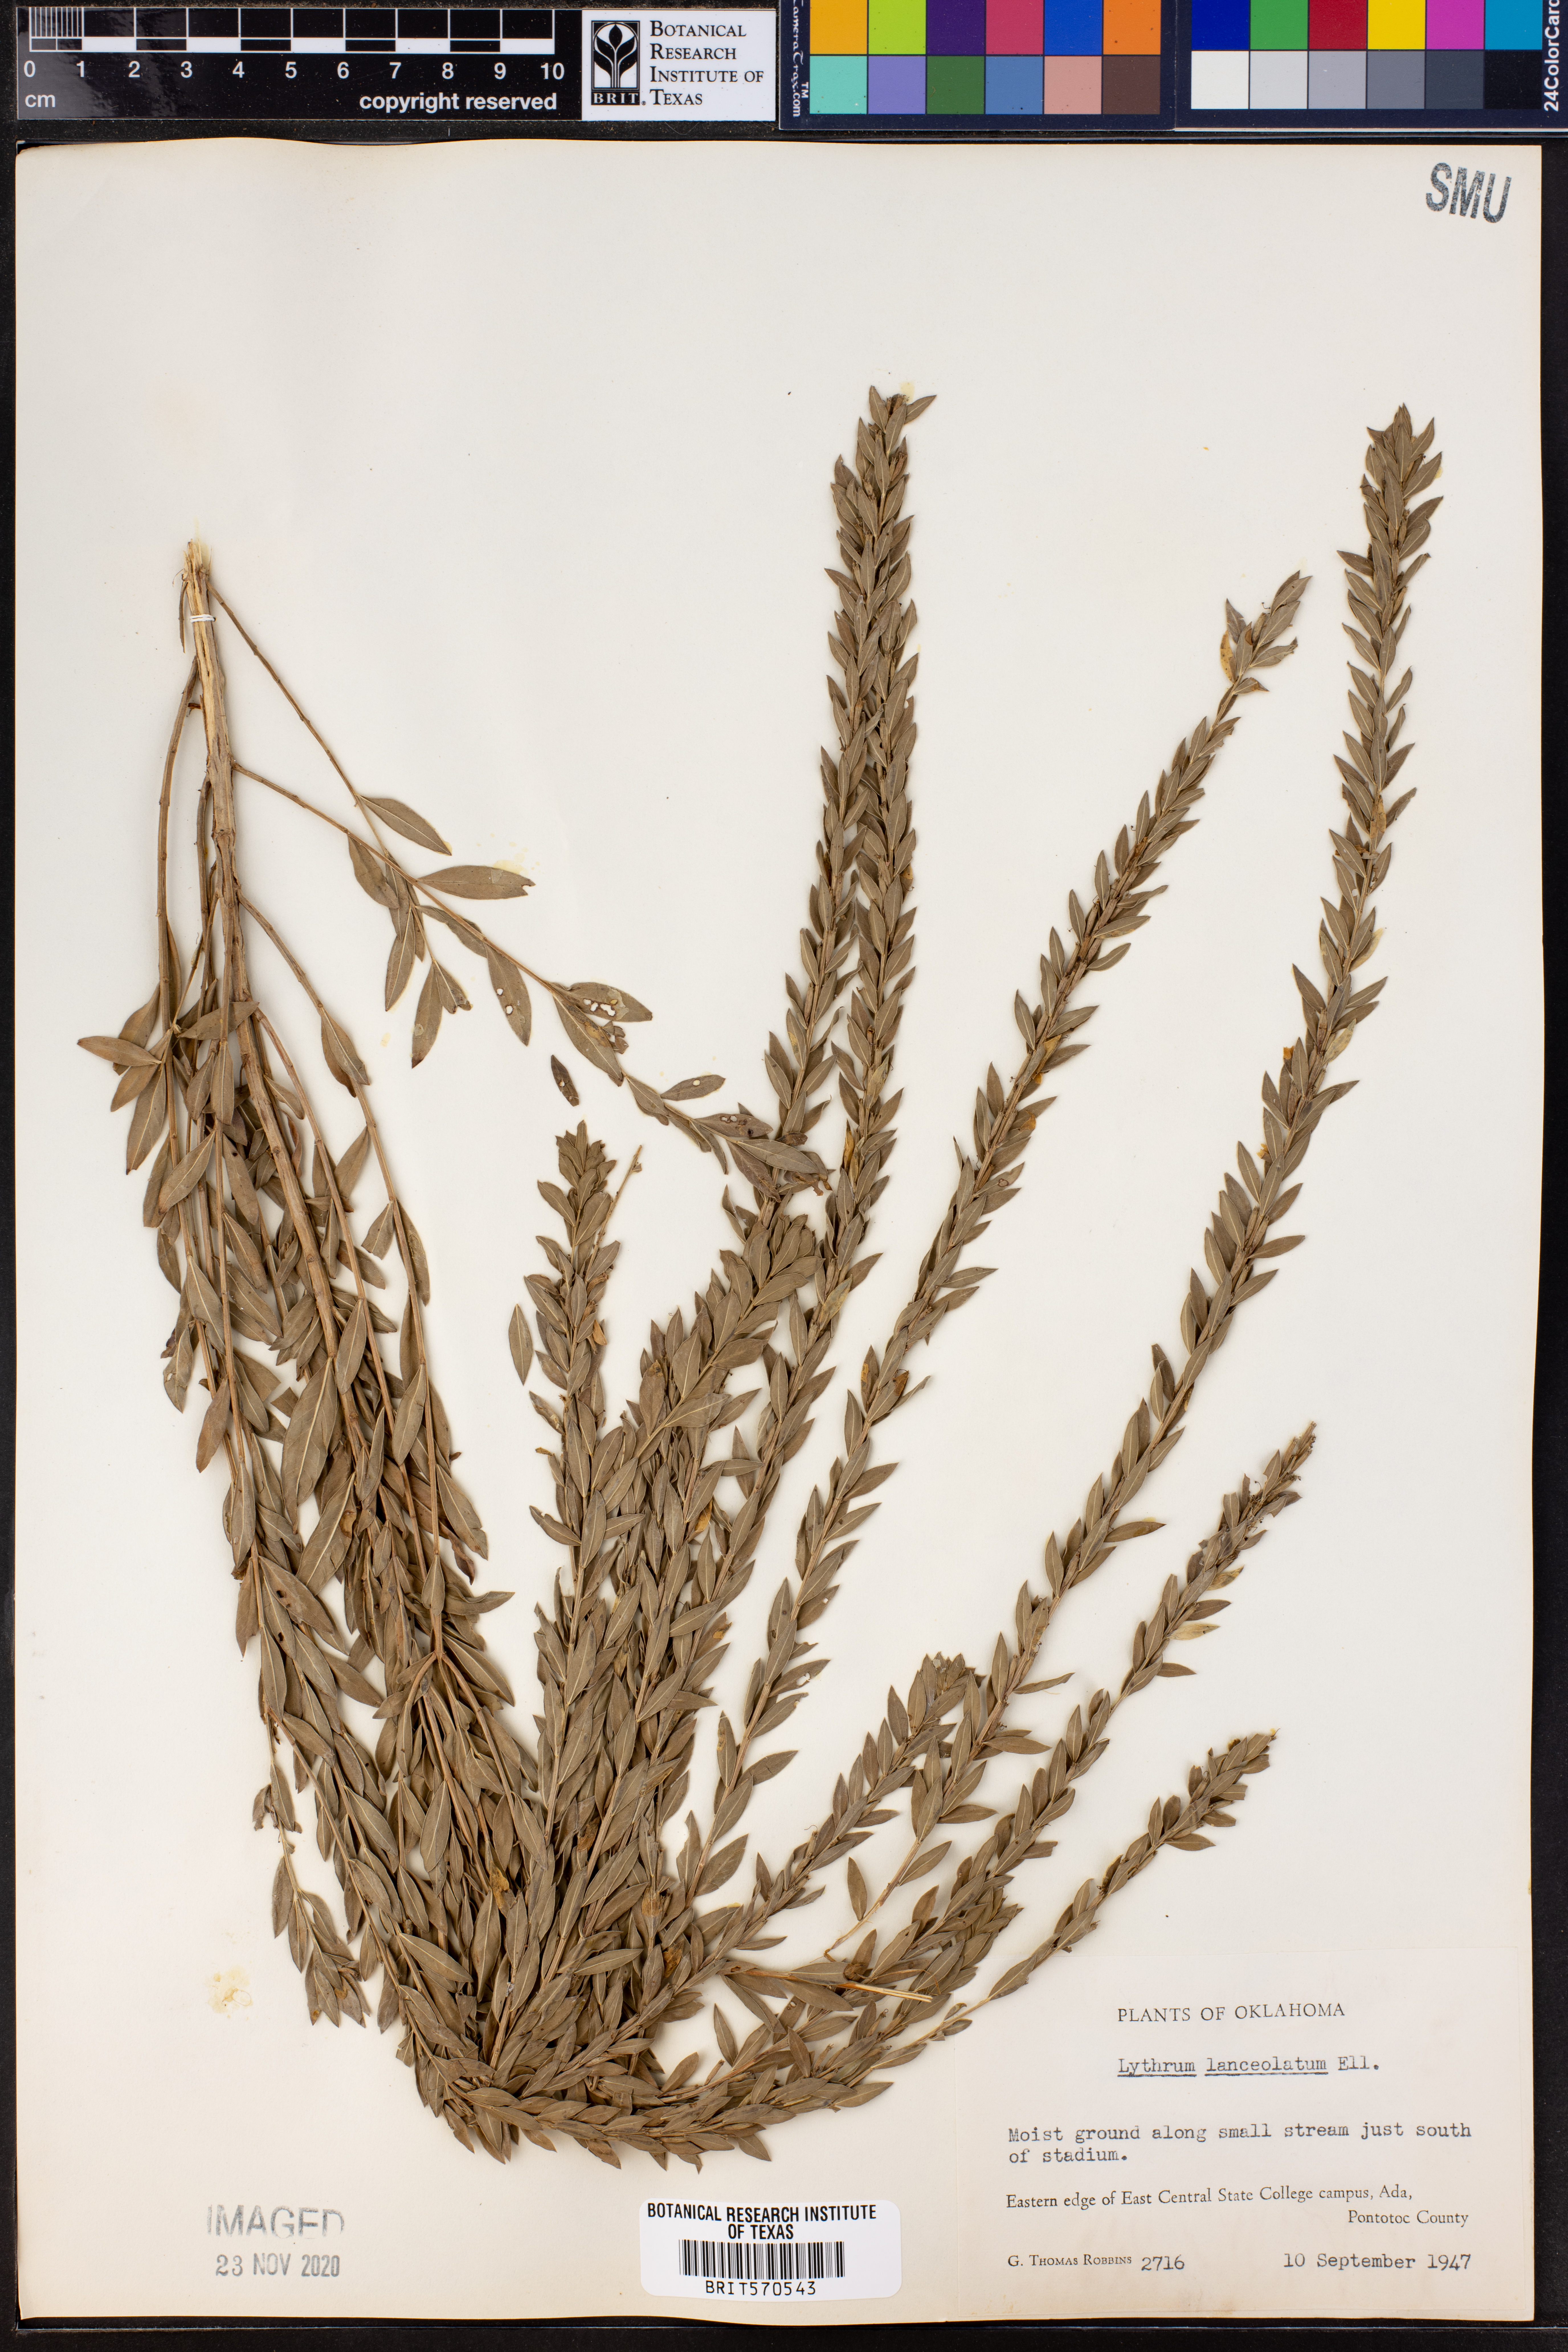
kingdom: Plantae
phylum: Tracheophyta
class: Magnoliopsida
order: Myrtales
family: Lythraceae
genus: Lythrum
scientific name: Lythrum alatum
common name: Winged loosestrife
